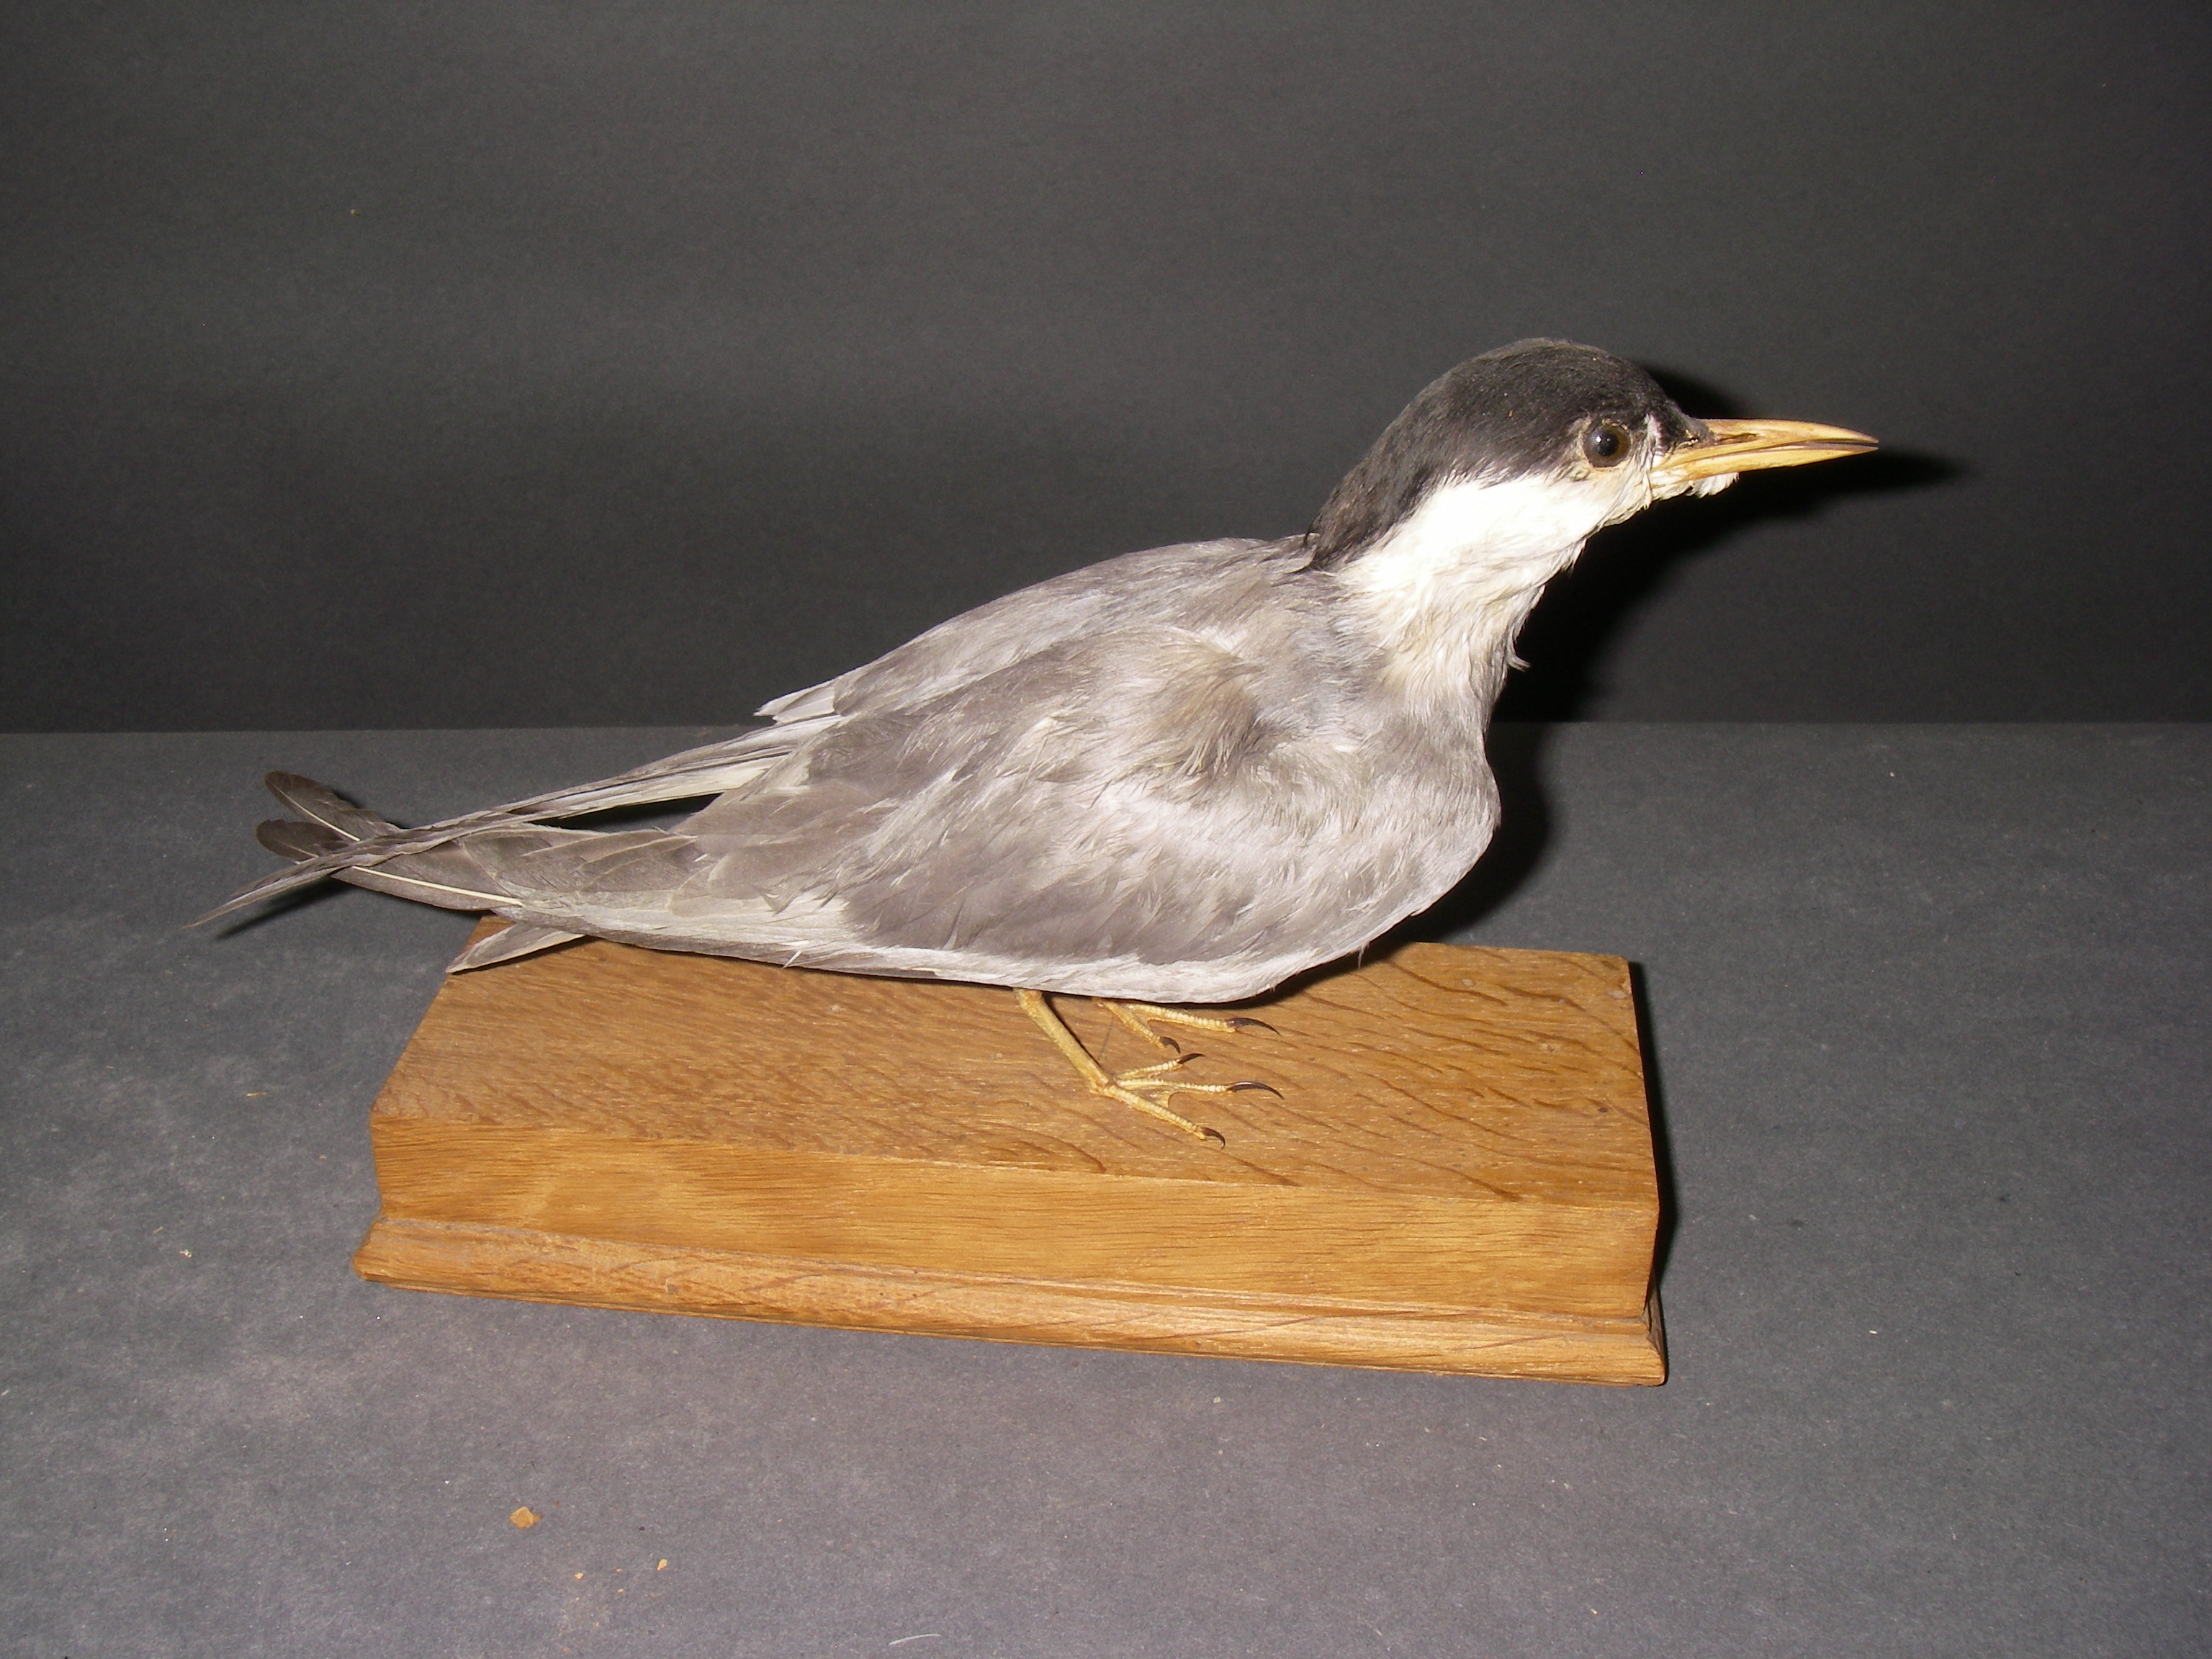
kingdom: Animalia
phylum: Chordata
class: Aves
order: Charadriiformes
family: Laridae
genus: Chlidonias
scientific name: Chlidonias hybrida
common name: Whiskered tern
